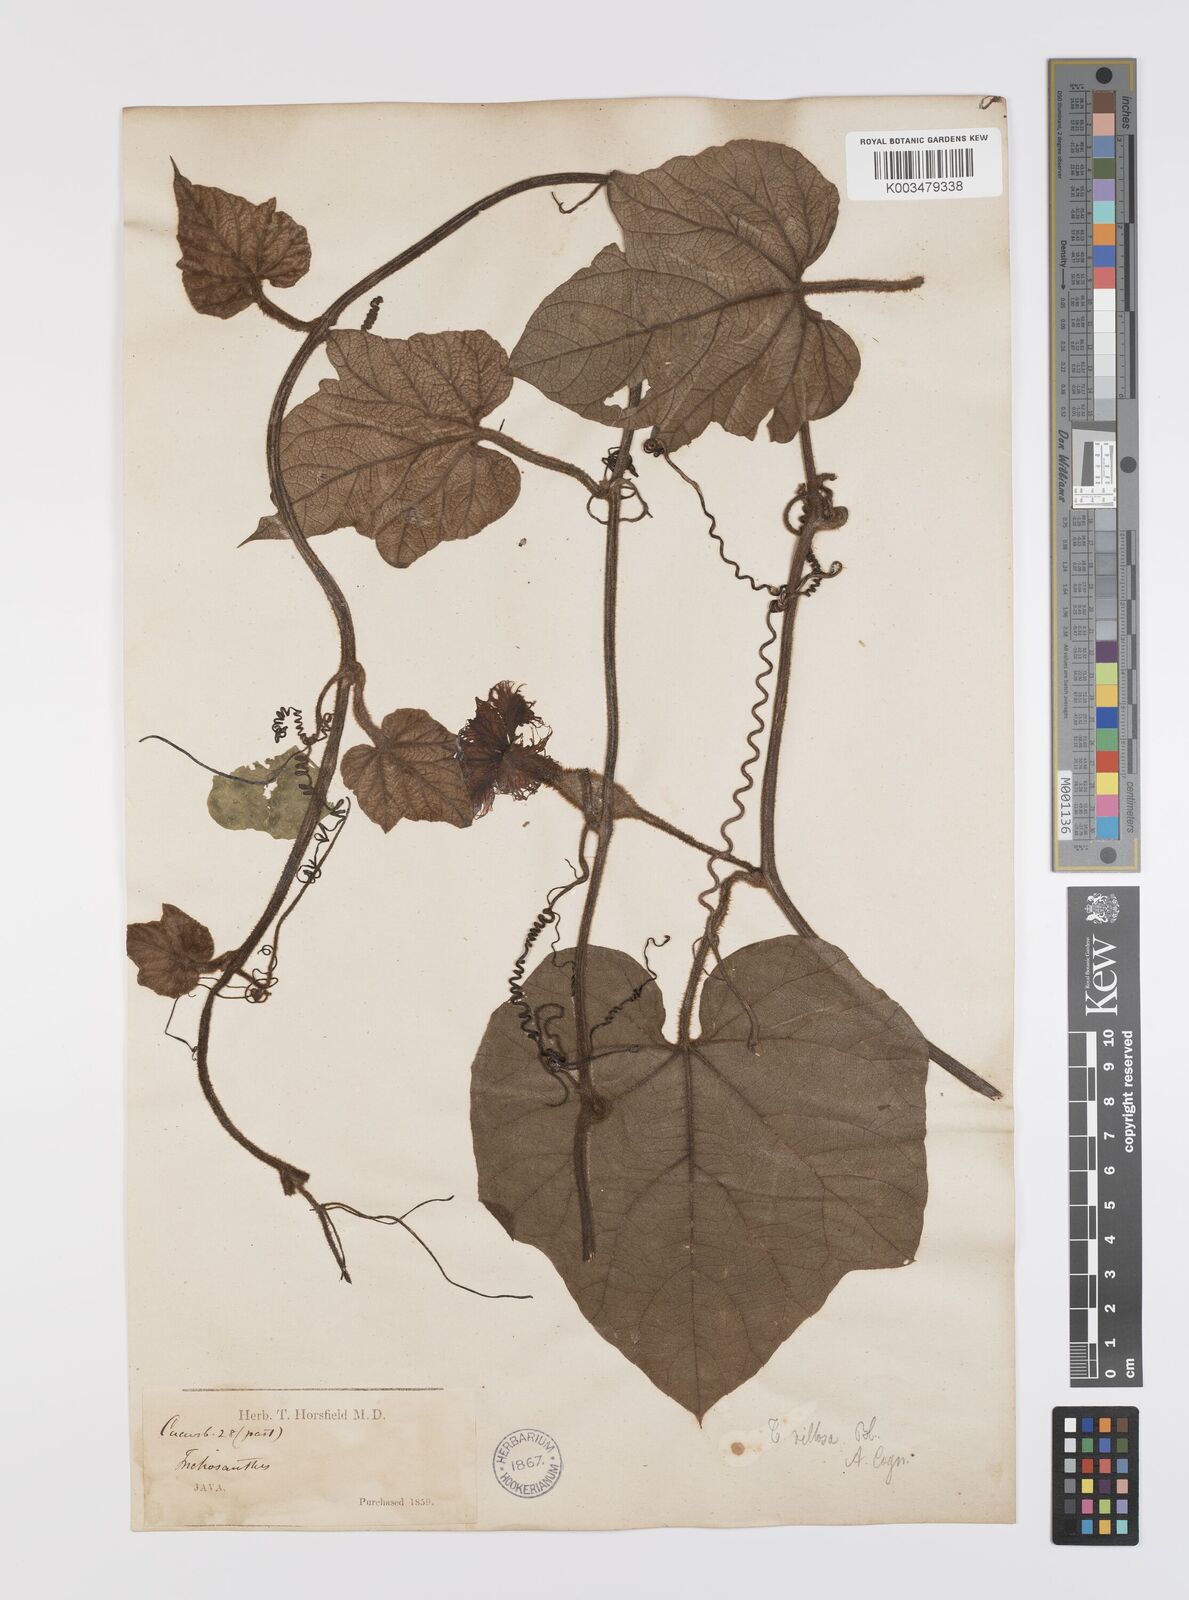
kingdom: Plantae
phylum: Tracheophyta
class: Magnoliopsida
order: Cucurbitales
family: Cucurbitaceae
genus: Trichosanthes
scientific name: Trichosanthes villosa
